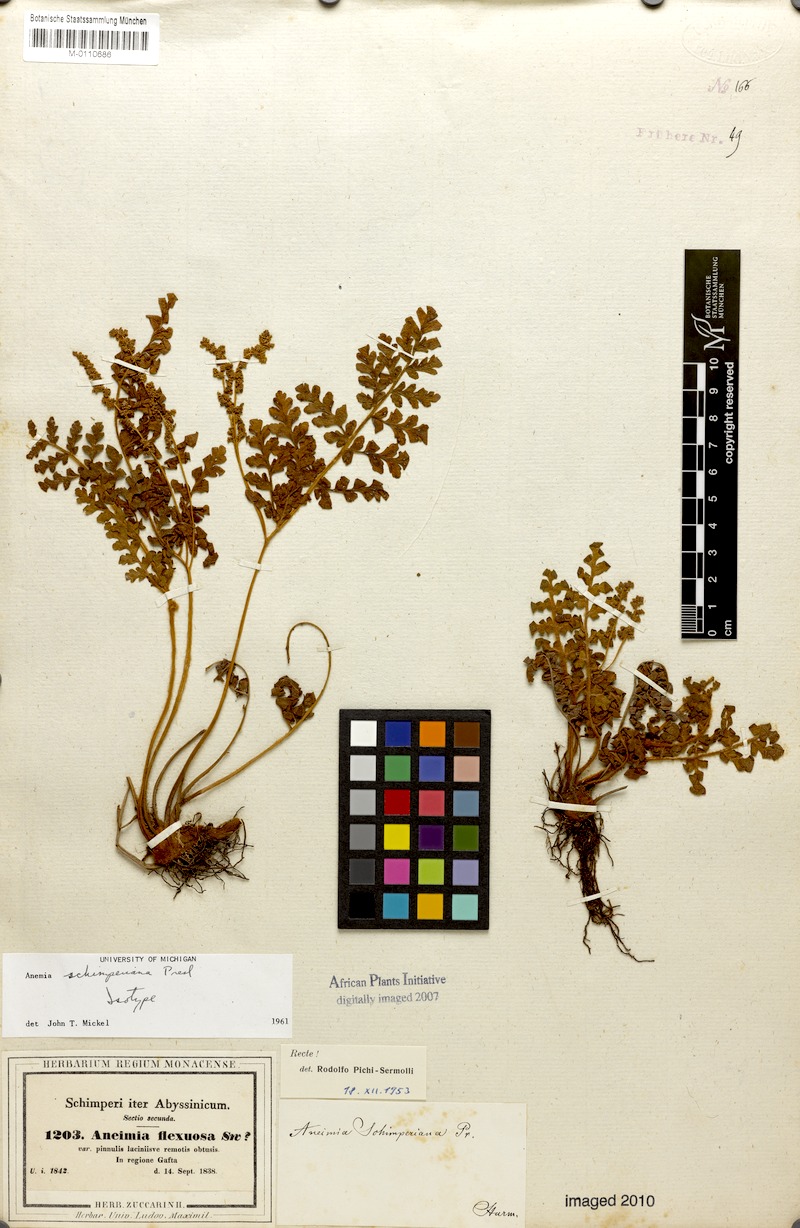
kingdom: Plantae
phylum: Tracheophyta
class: Polypodiopsida
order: Schizaeales
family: Anemiaceae
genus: Anemia
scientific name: Anemia schimperiana
